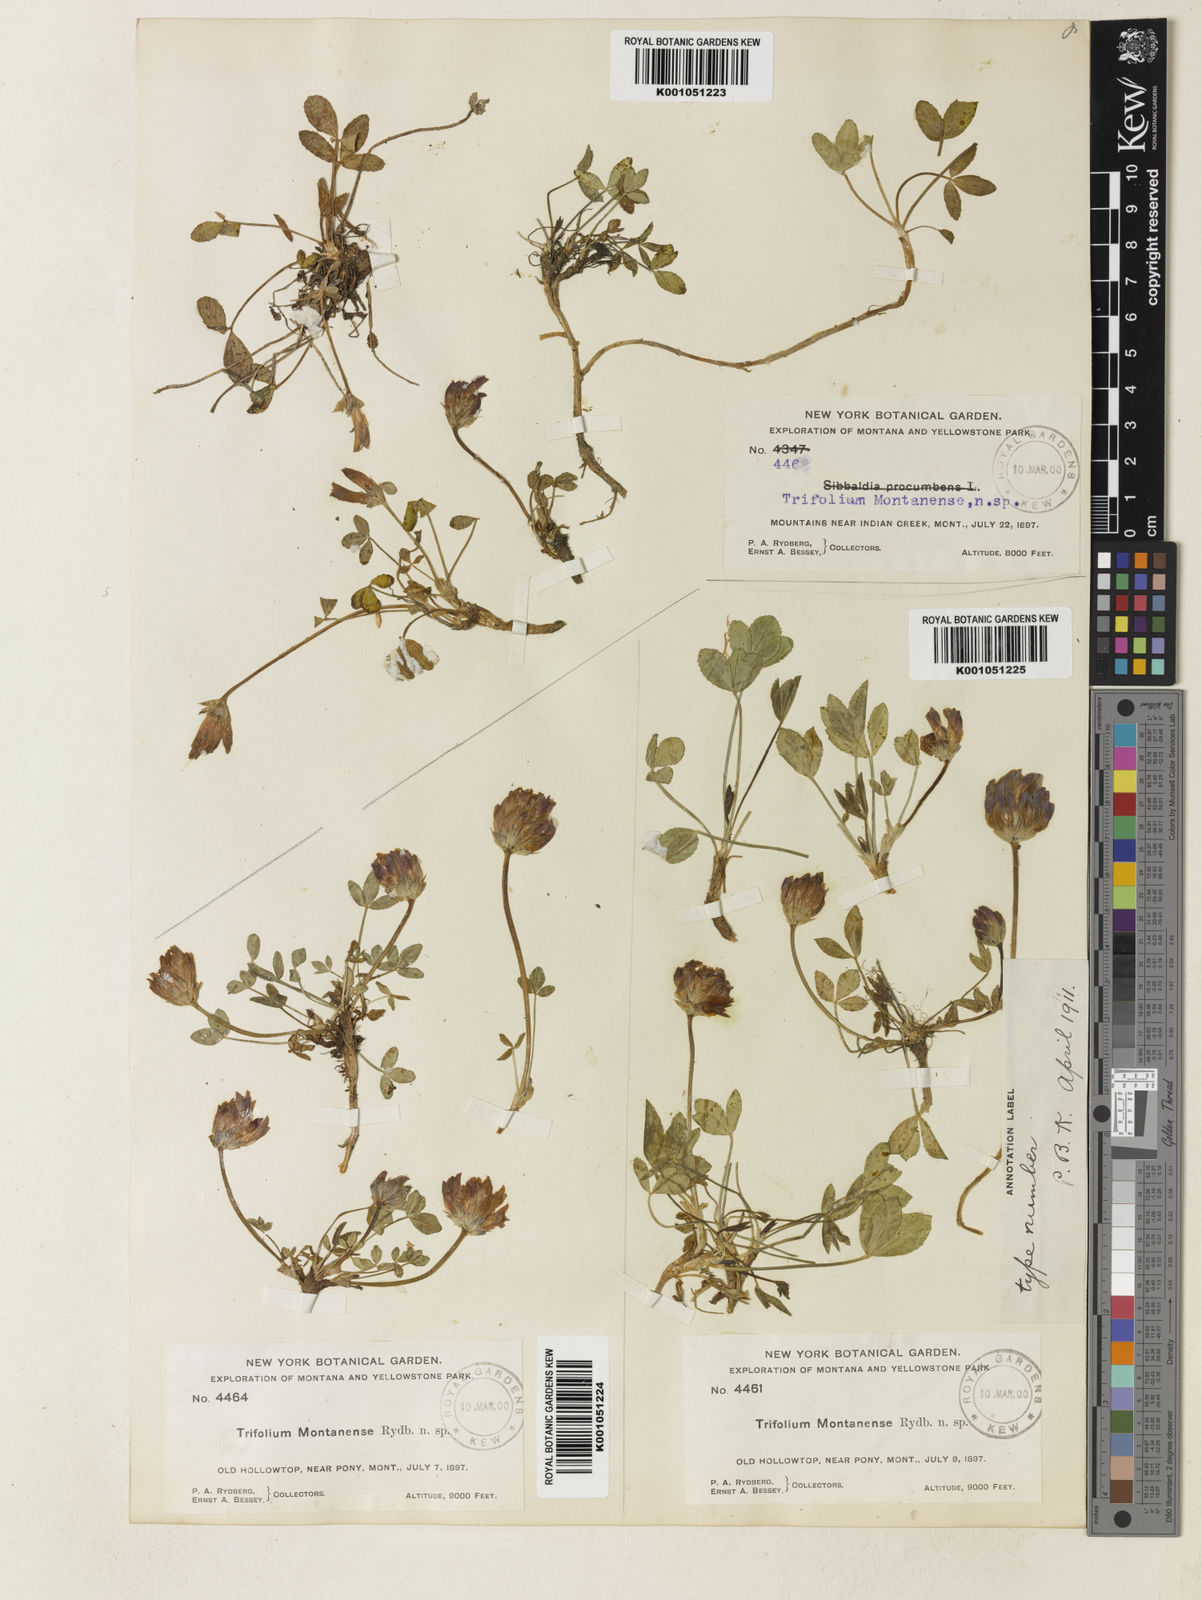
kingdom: Plantae
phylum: Tracheophyta
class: Magnoliopsida
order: Fabales
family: Fabaceae
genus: Trifolium
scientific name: Trifolium parryi
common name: Parry's clover
